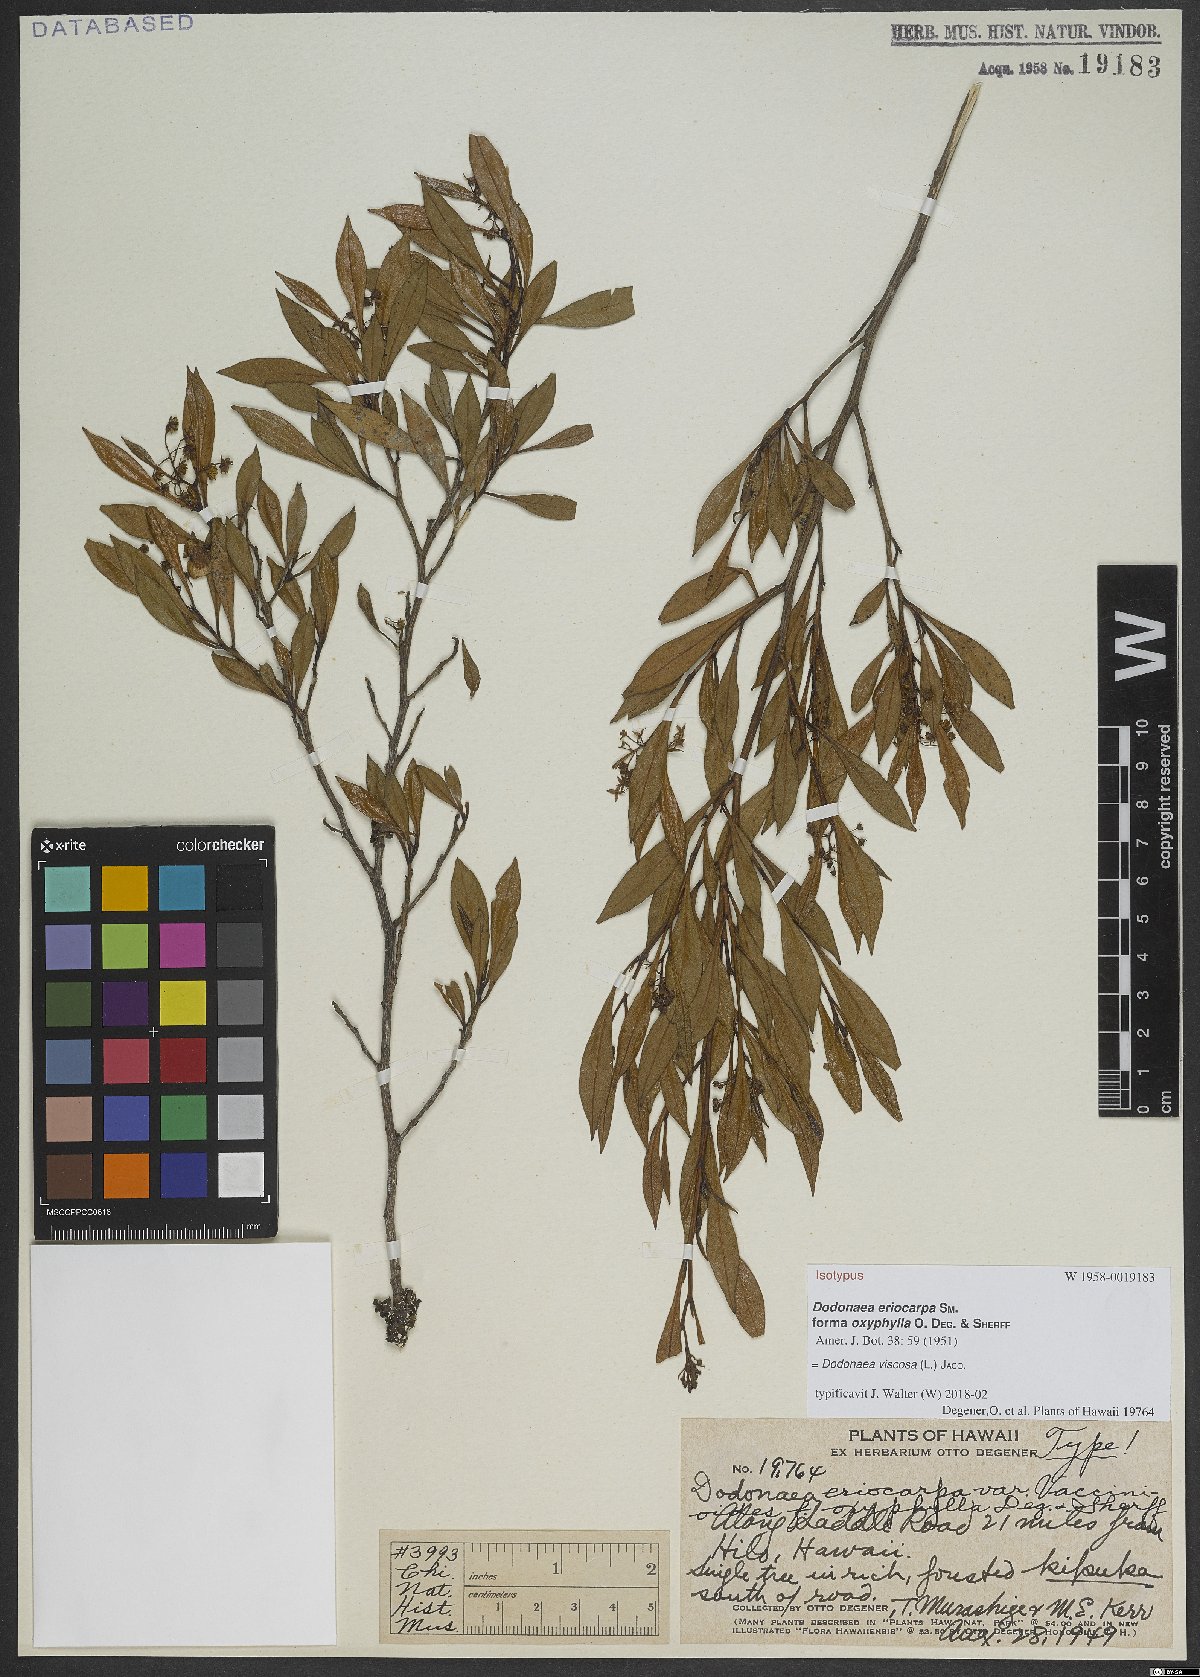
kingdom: Plantae
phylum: Tracheophyta
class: Magnoliopsida
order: Sapindales
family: Sapindaceae
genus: Dodonaea
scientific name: Dodonaea viscosa
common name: Hopbush
